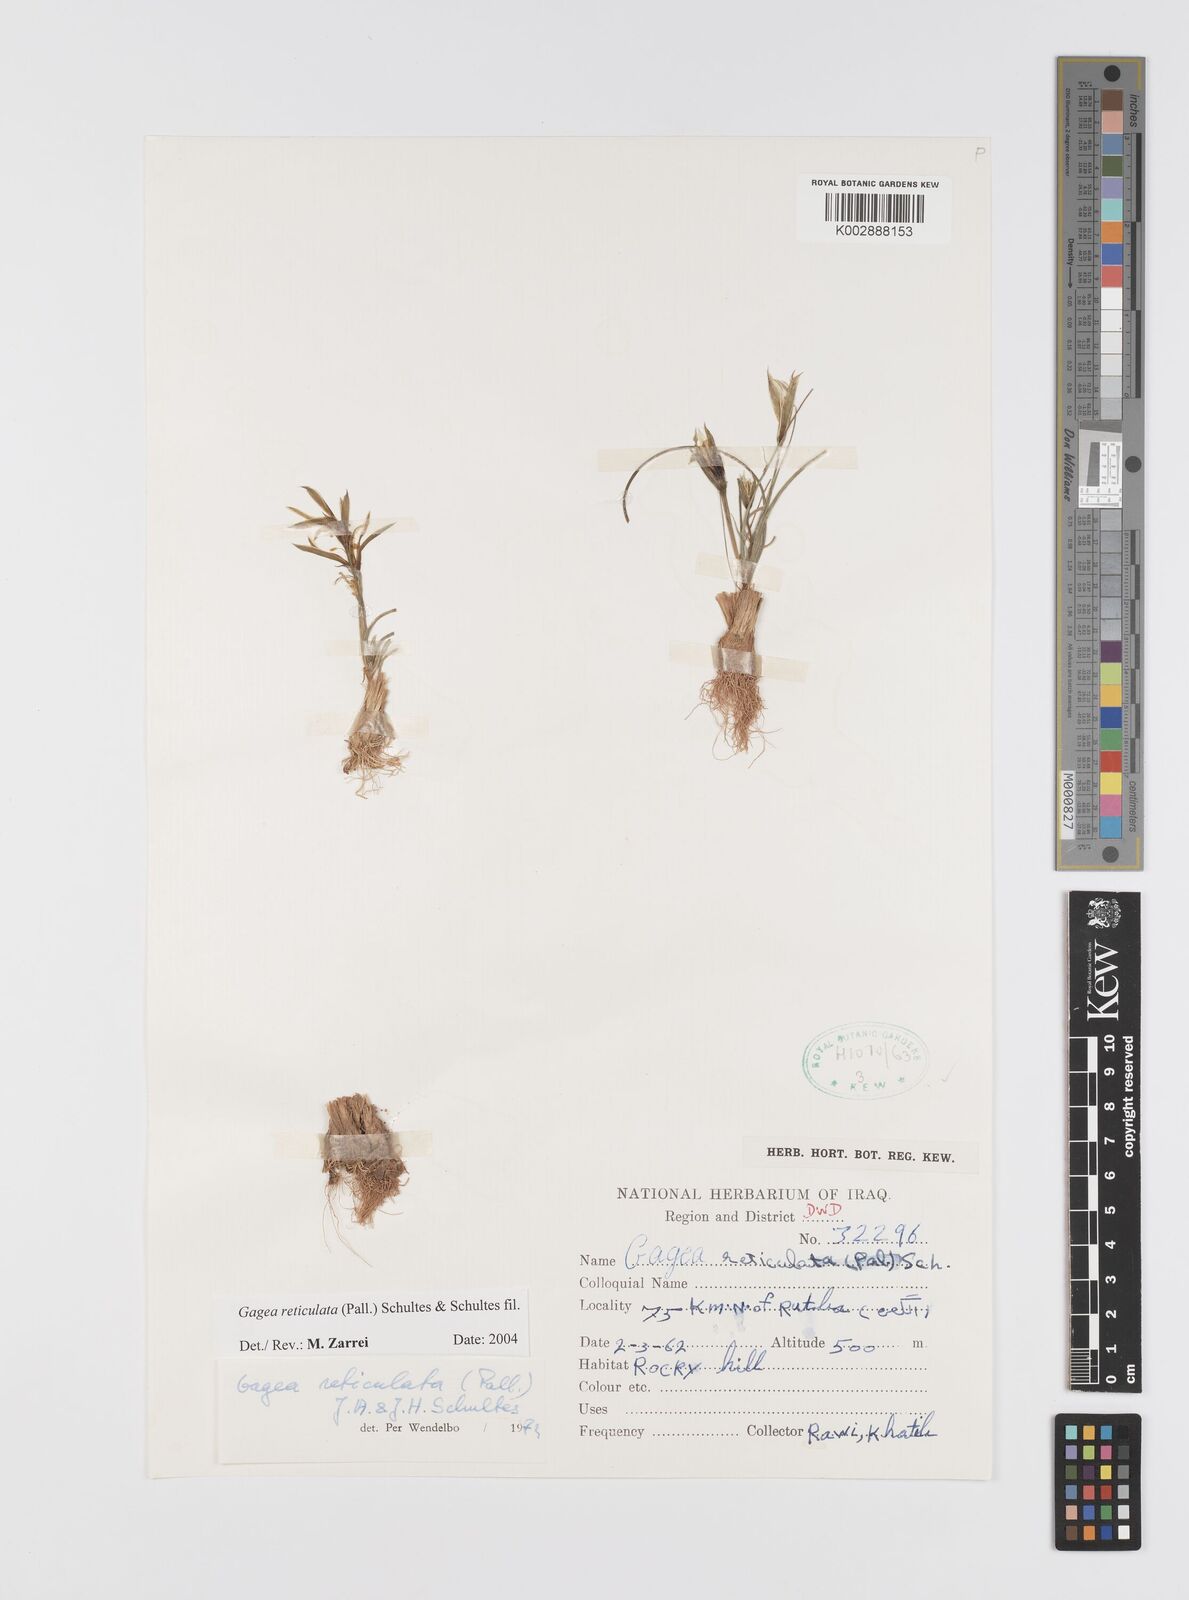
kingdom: Plantae
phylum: Tracheophyta
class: Liliopsida
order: Liliales
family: Liliaceae
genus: Gagea
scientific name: Gagea reticulata
